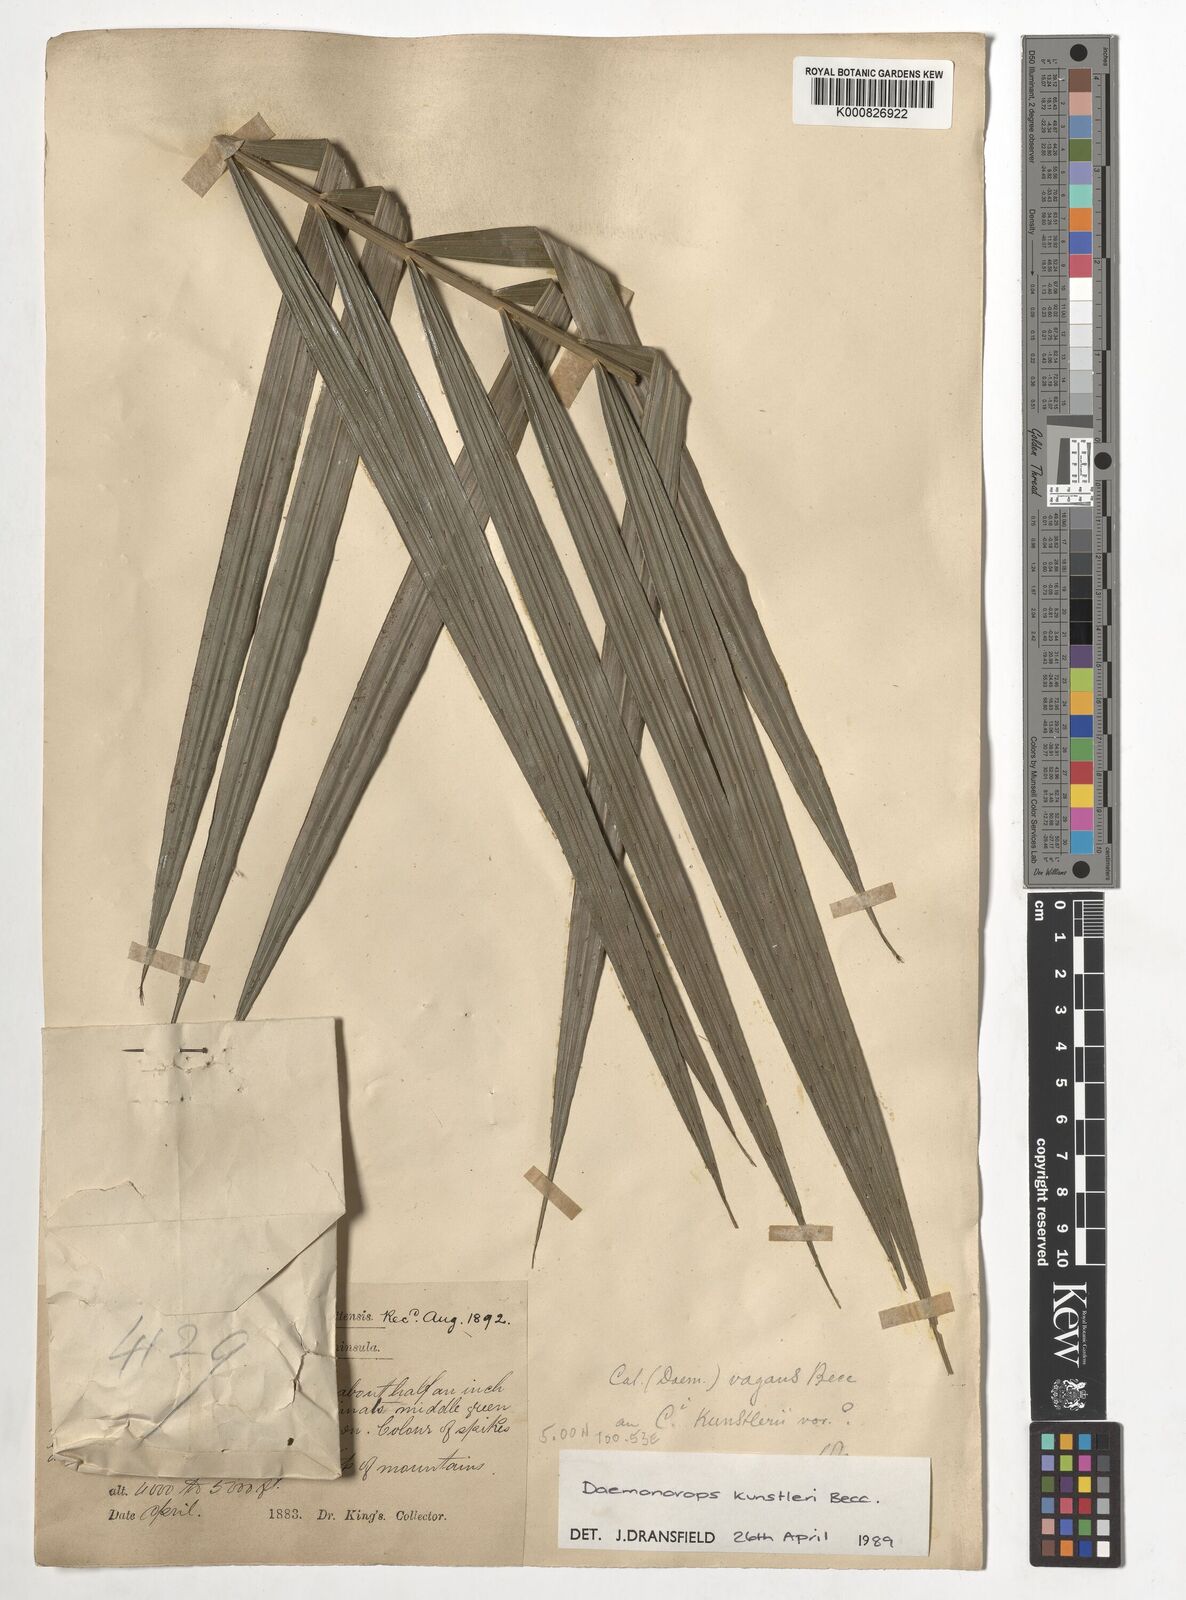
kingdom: Plantae
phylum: Tracheophyta
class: Liliopsida
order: Arecales
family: Arecaceae
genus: Calamus
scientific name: Calamus kunstleri
